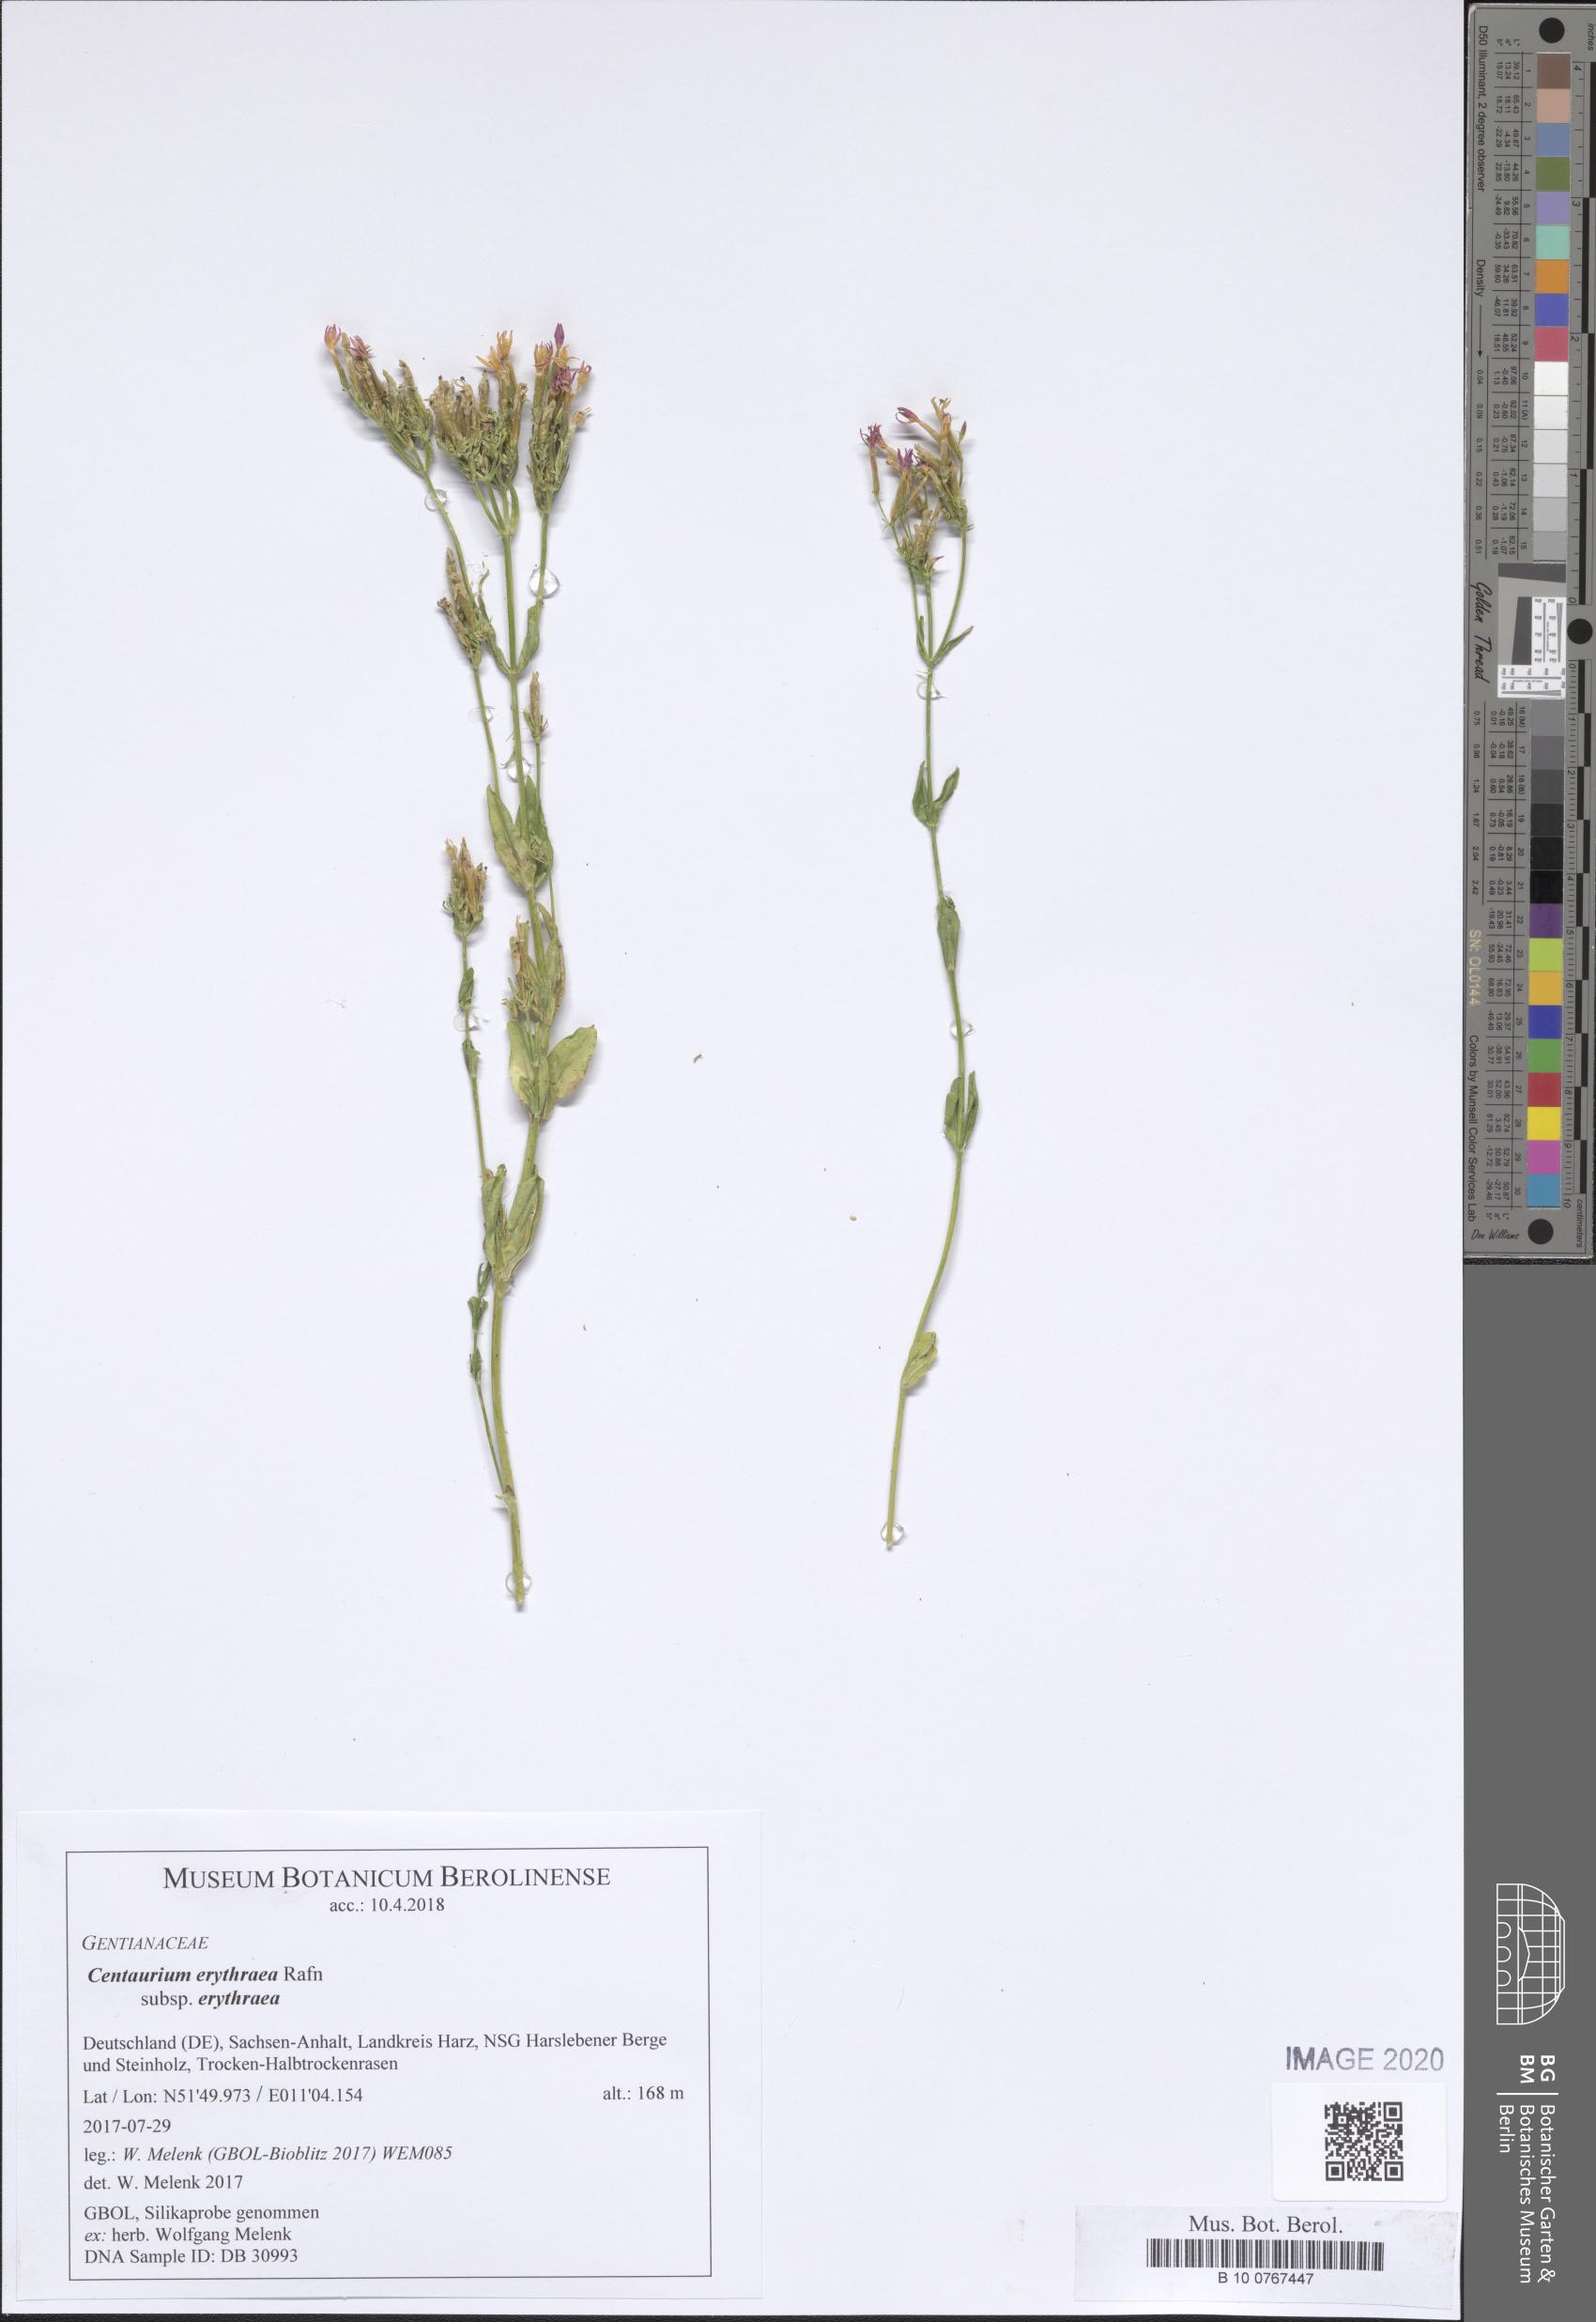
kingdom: Plantae
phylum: Tracheophyta
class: Magnoliopsida
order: Gentianales
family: Gentianaceae
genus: Centaurium
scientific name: Centaurium erythraea
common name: Common centaury
